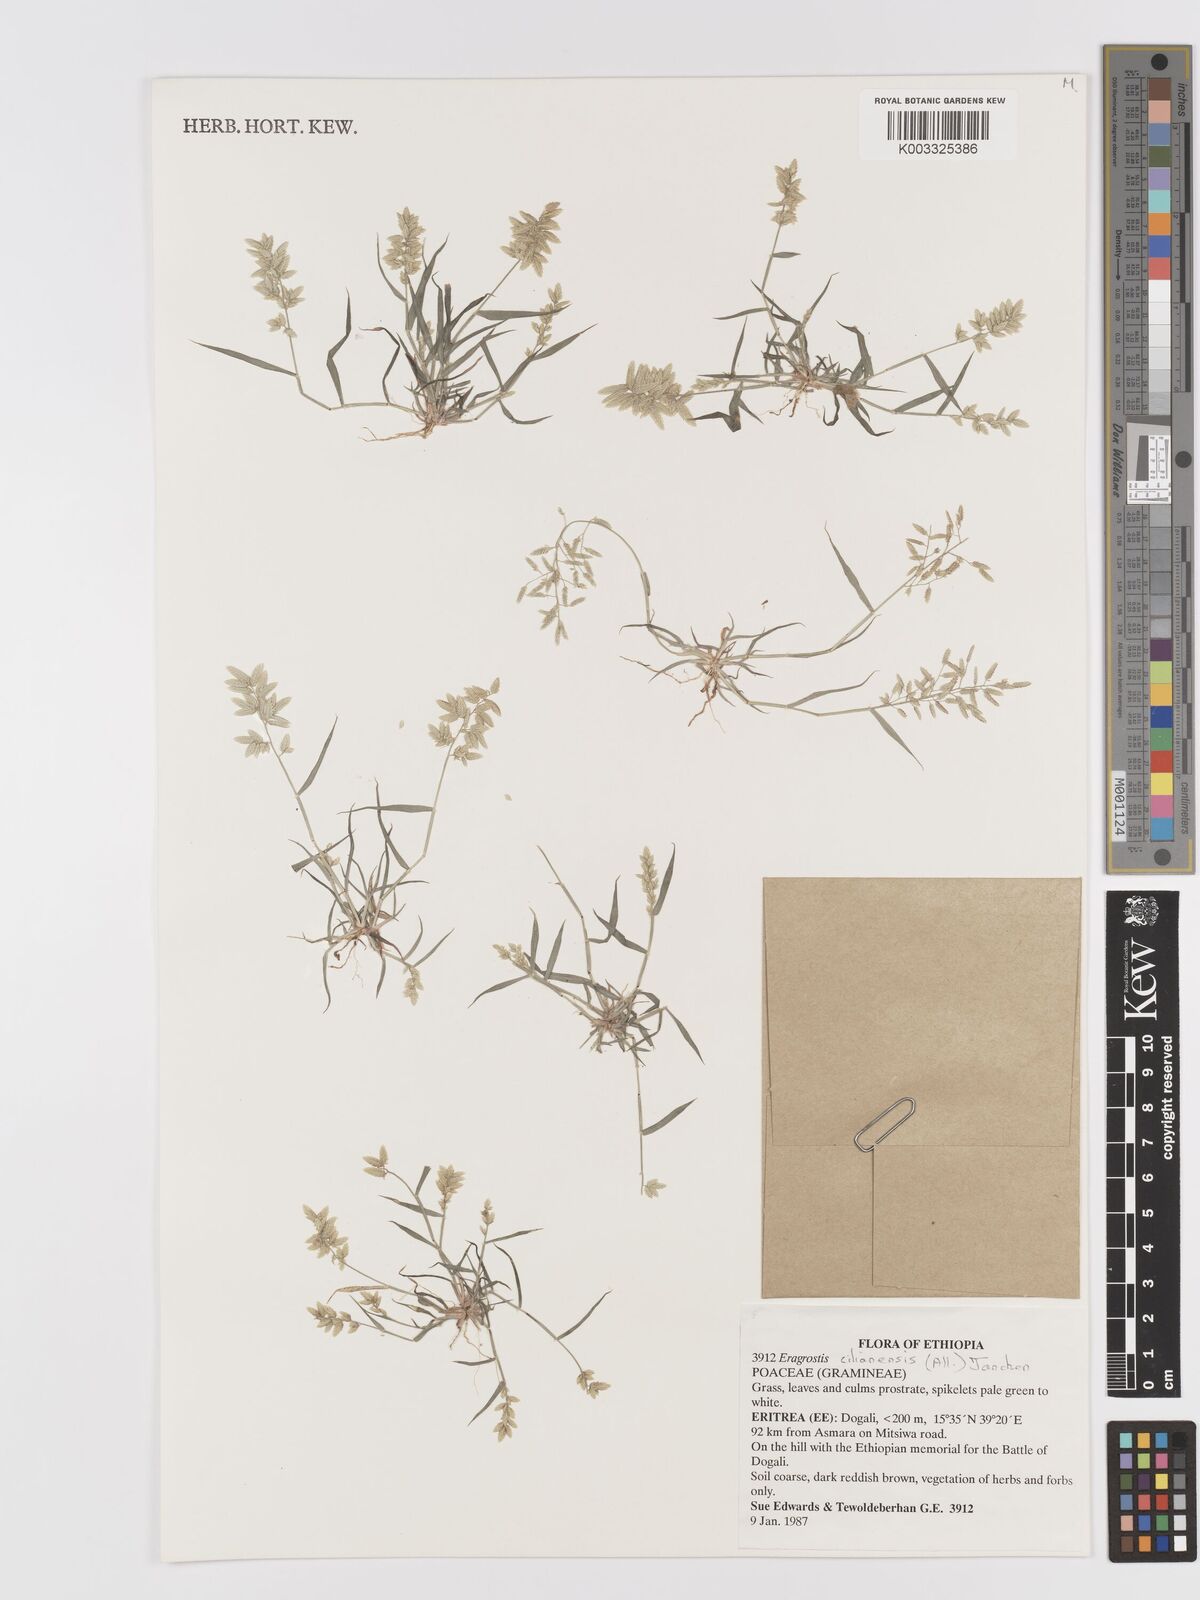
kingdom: Plantae
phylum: Tracheophyta
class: Liliopsida
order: Poales
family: Poaceae
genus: Eragrostis
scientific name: Eragrostis cilianensis
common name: Stinkgrass
